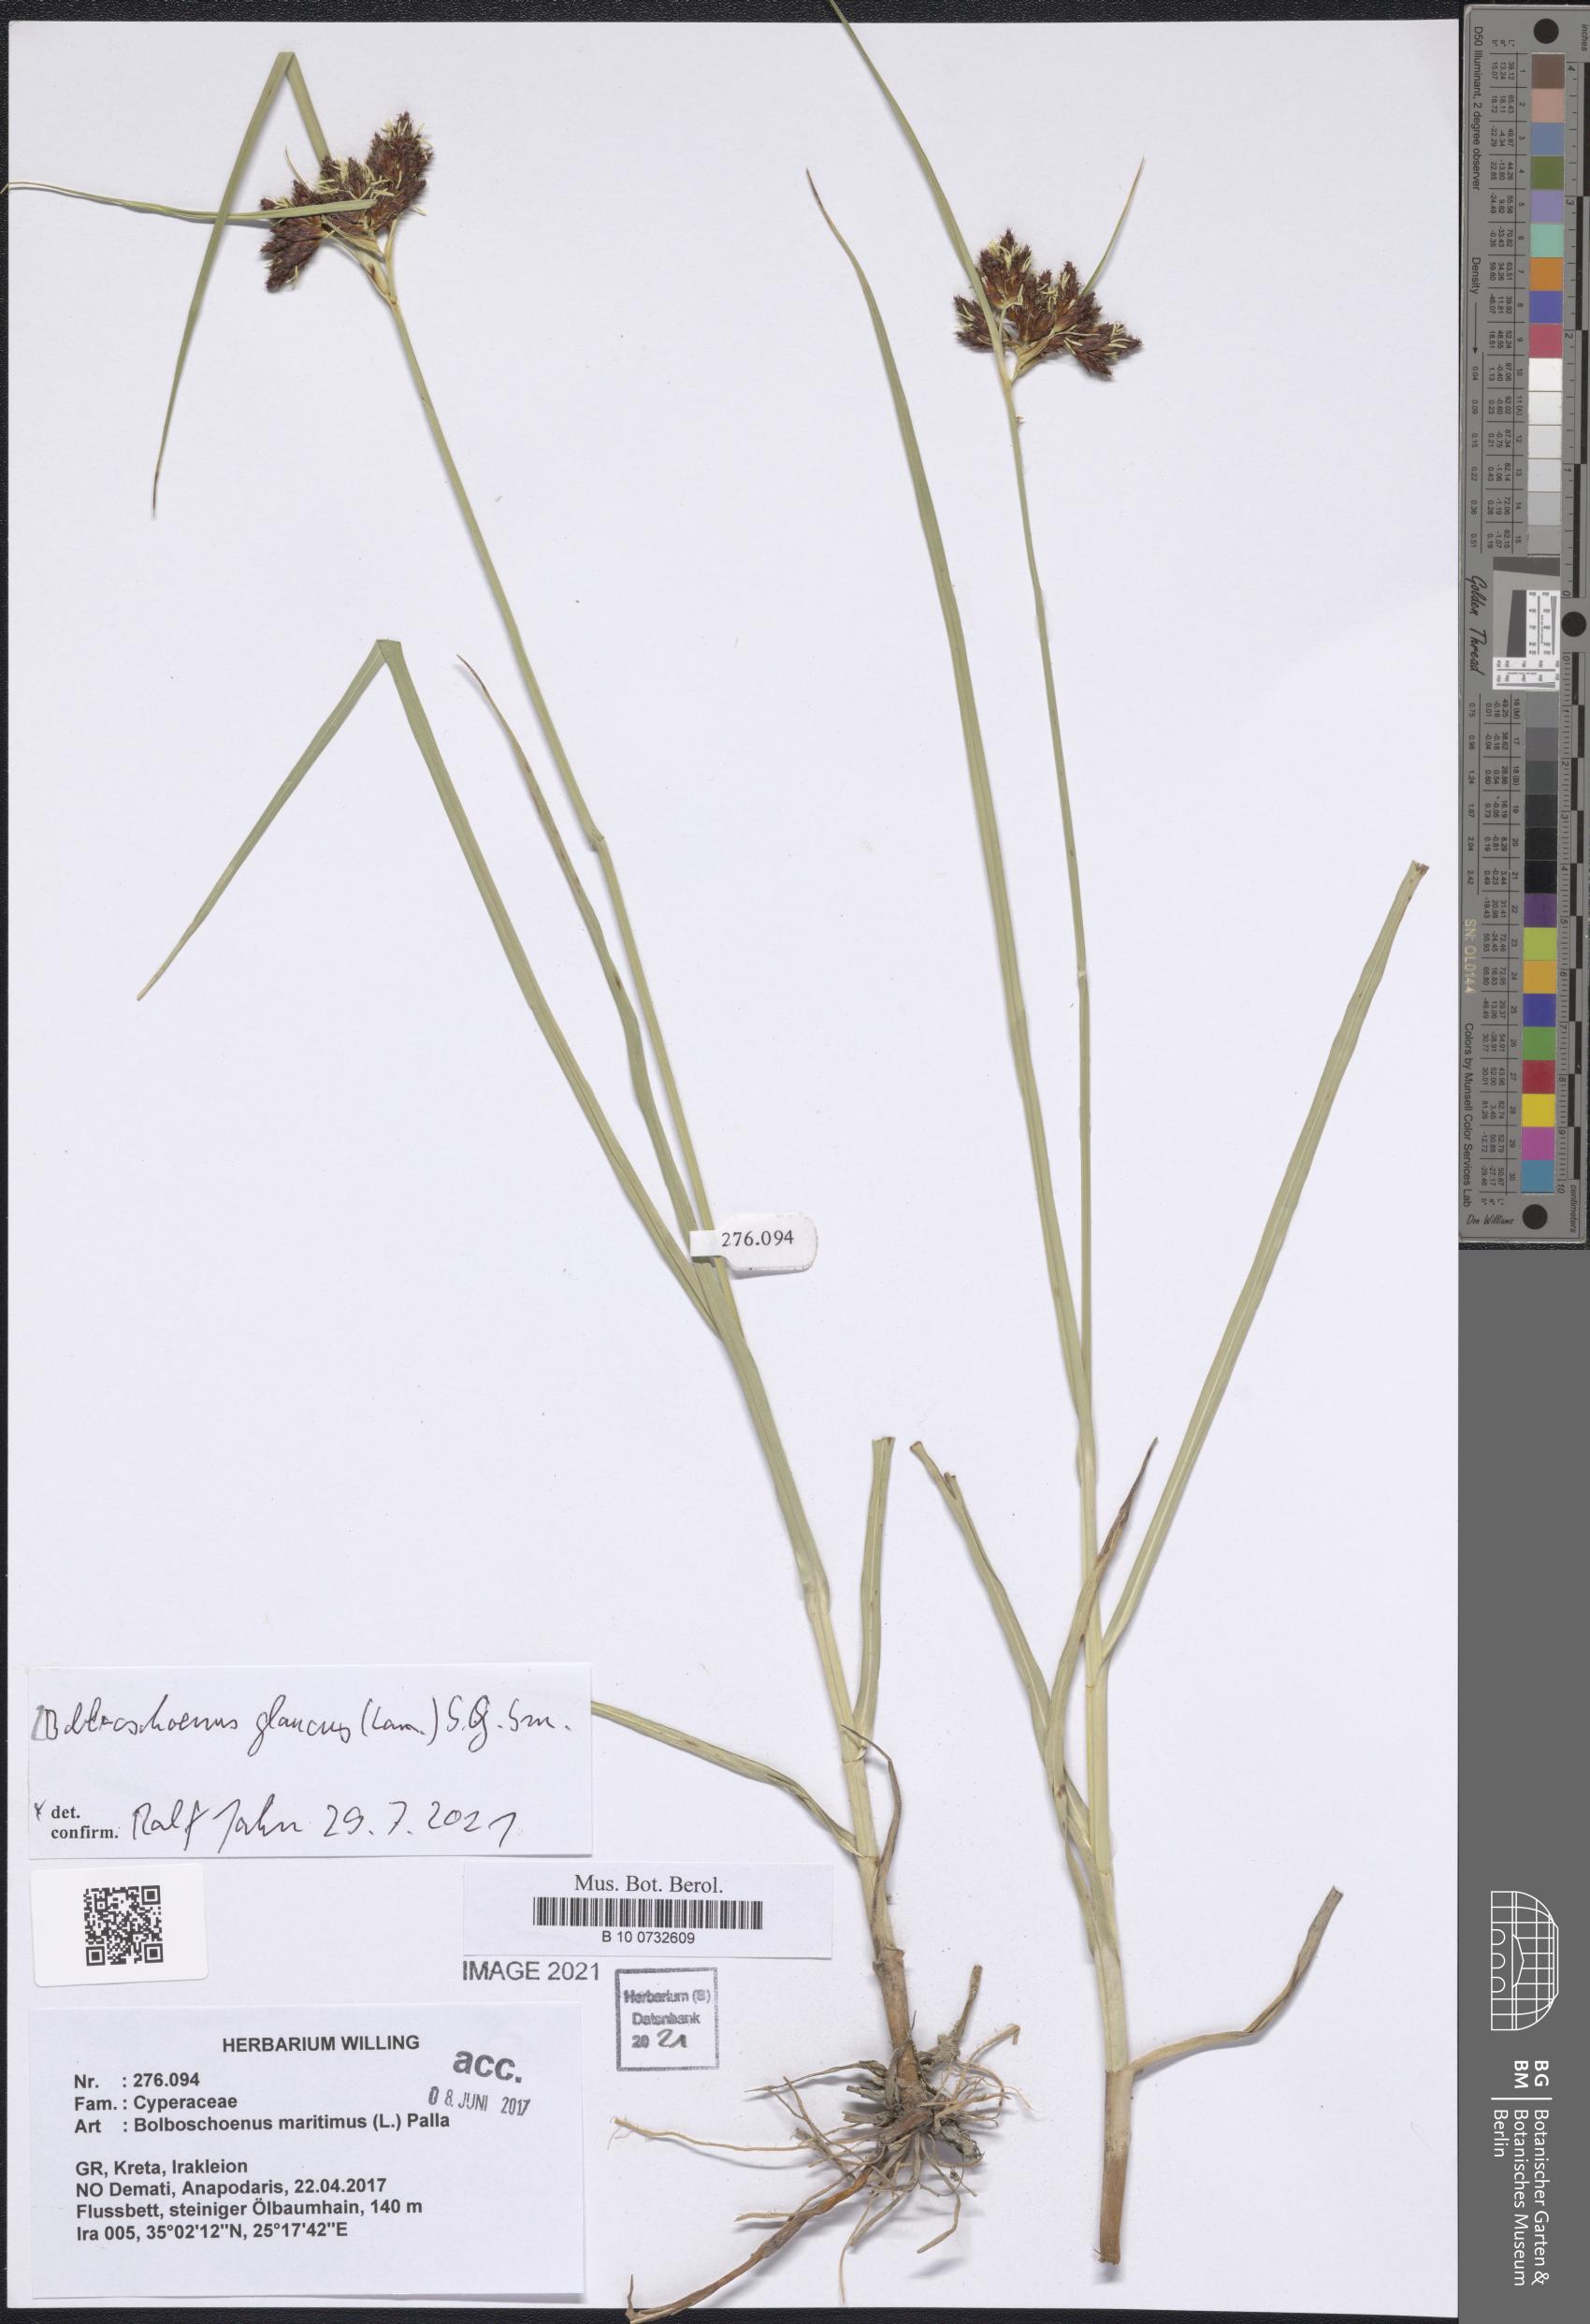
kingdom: Plantae
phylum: Tracheophyta
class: Liliopsida
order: Poales
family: Cyperaceae
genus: Bolboschoenus
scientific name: Bolboschoenus glaucus
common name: Tuberous bulrush
